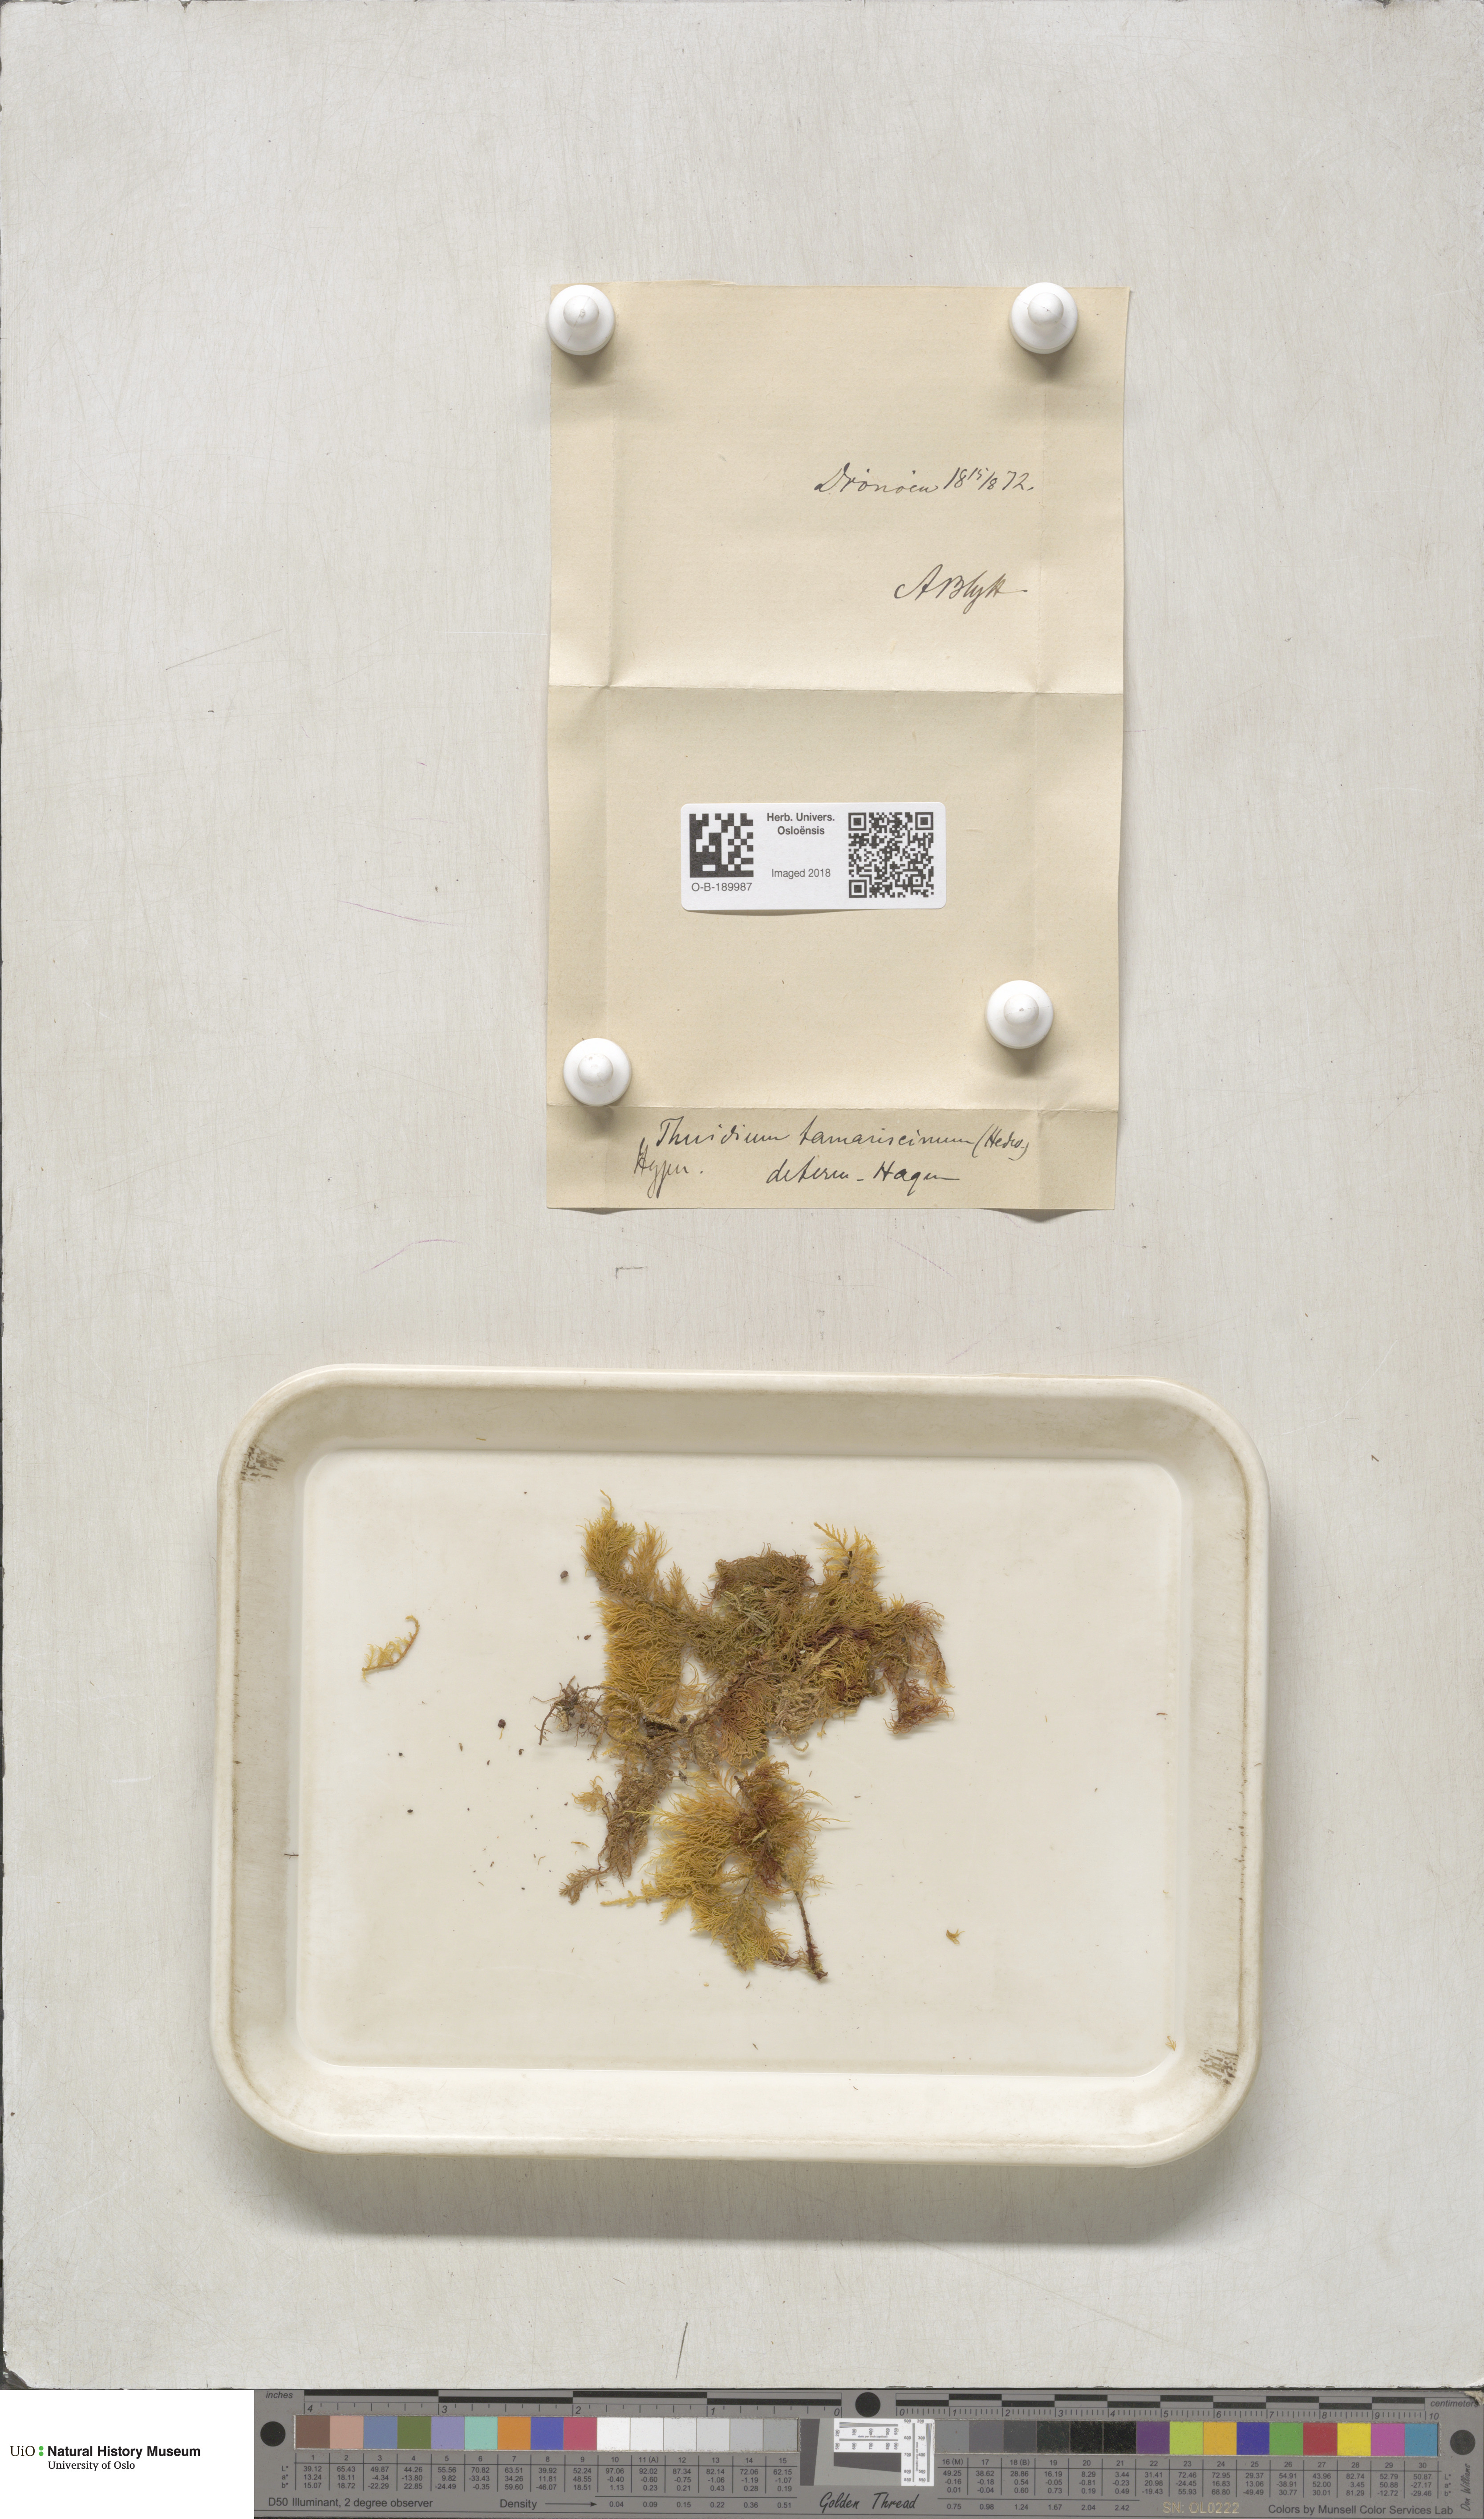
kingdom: Plantae
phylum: Bryophyta
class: Bryopsida
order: Hypnales
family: Thuidiaceae
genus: Thuidium
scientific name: Thuidium tamariscinum
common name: Common tamarisk-moss
